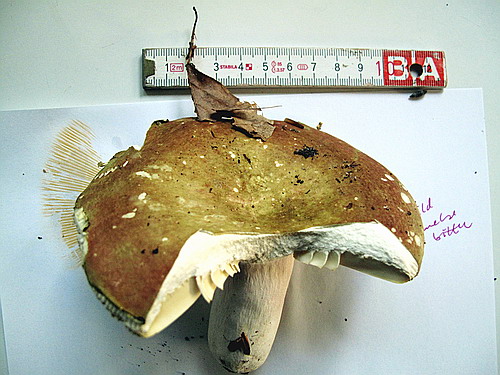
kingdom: Fungi
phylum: Basidiomycota
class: Agaricomycetes
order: Russulales
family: Russulaceae
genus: Russula
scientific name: Russula olivacea
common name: stor skørhat
